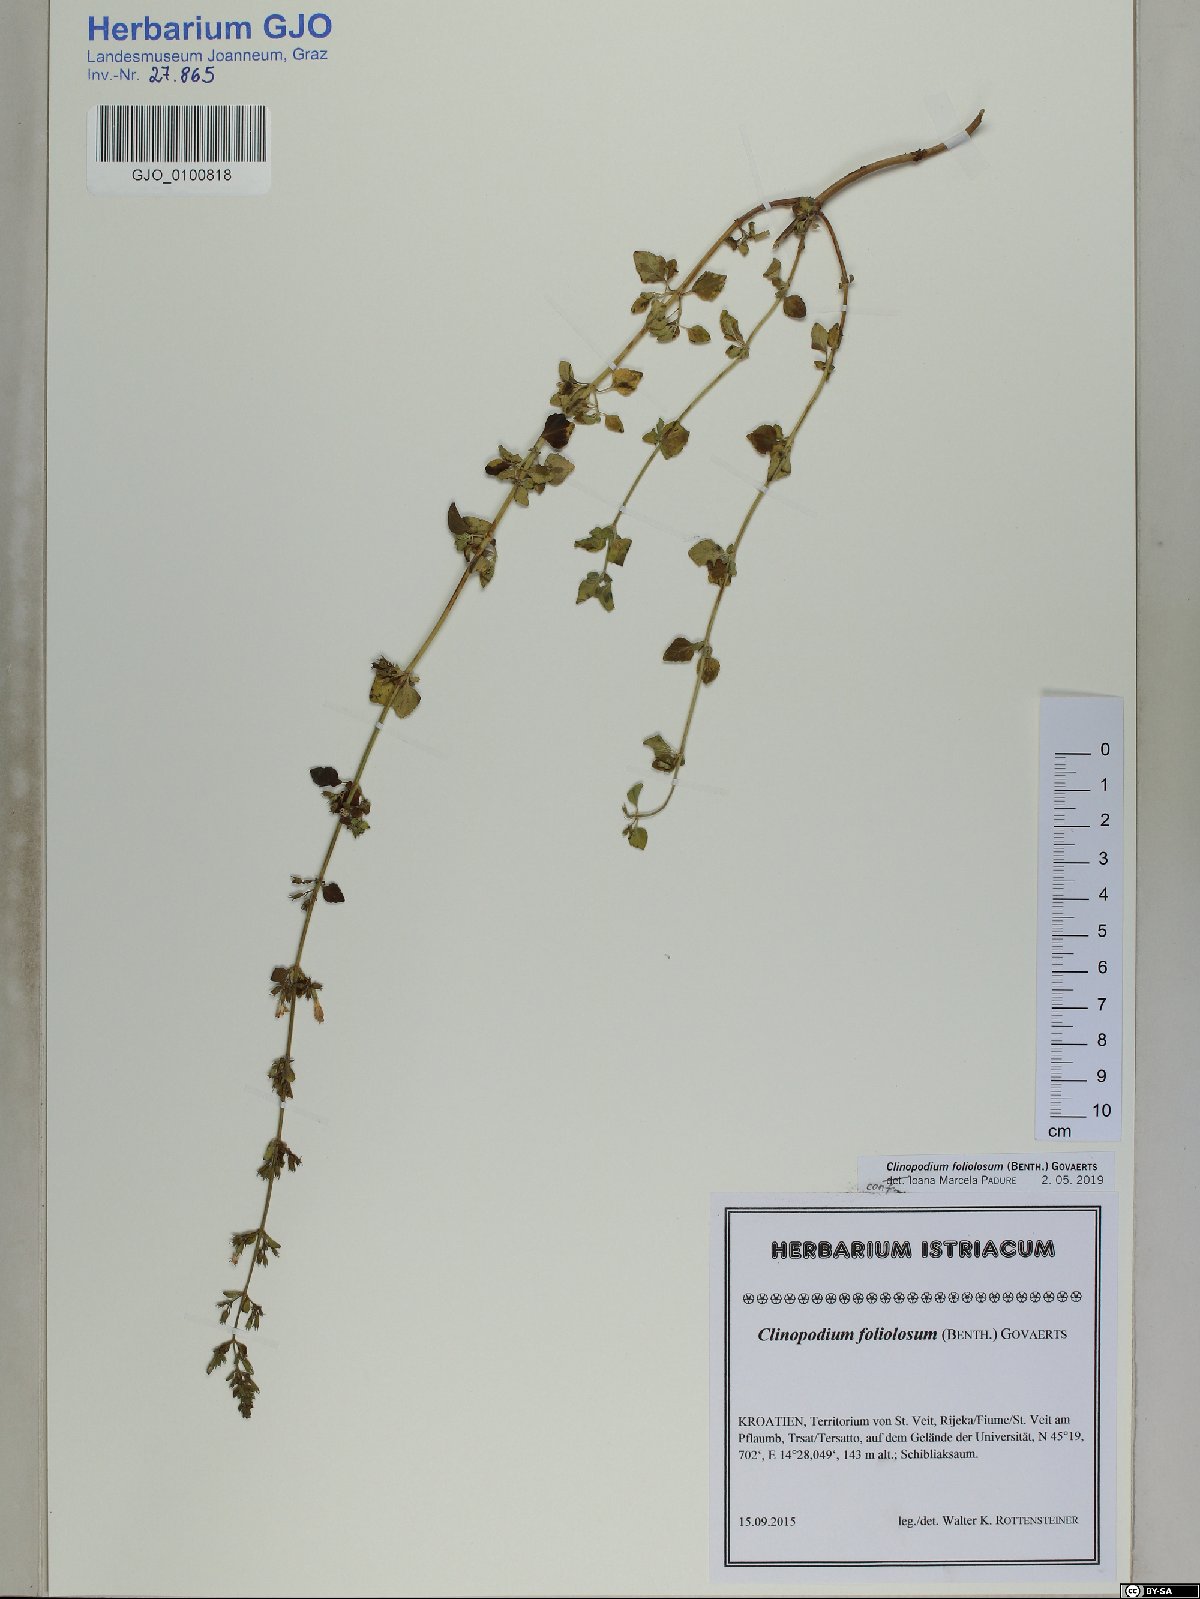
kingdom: Plantae
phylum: Tracheophyta
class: Magnoliopsida
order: Lamiales
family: Lamiaceae
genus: Clinopodium
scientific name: Clinopodium foliolosum
